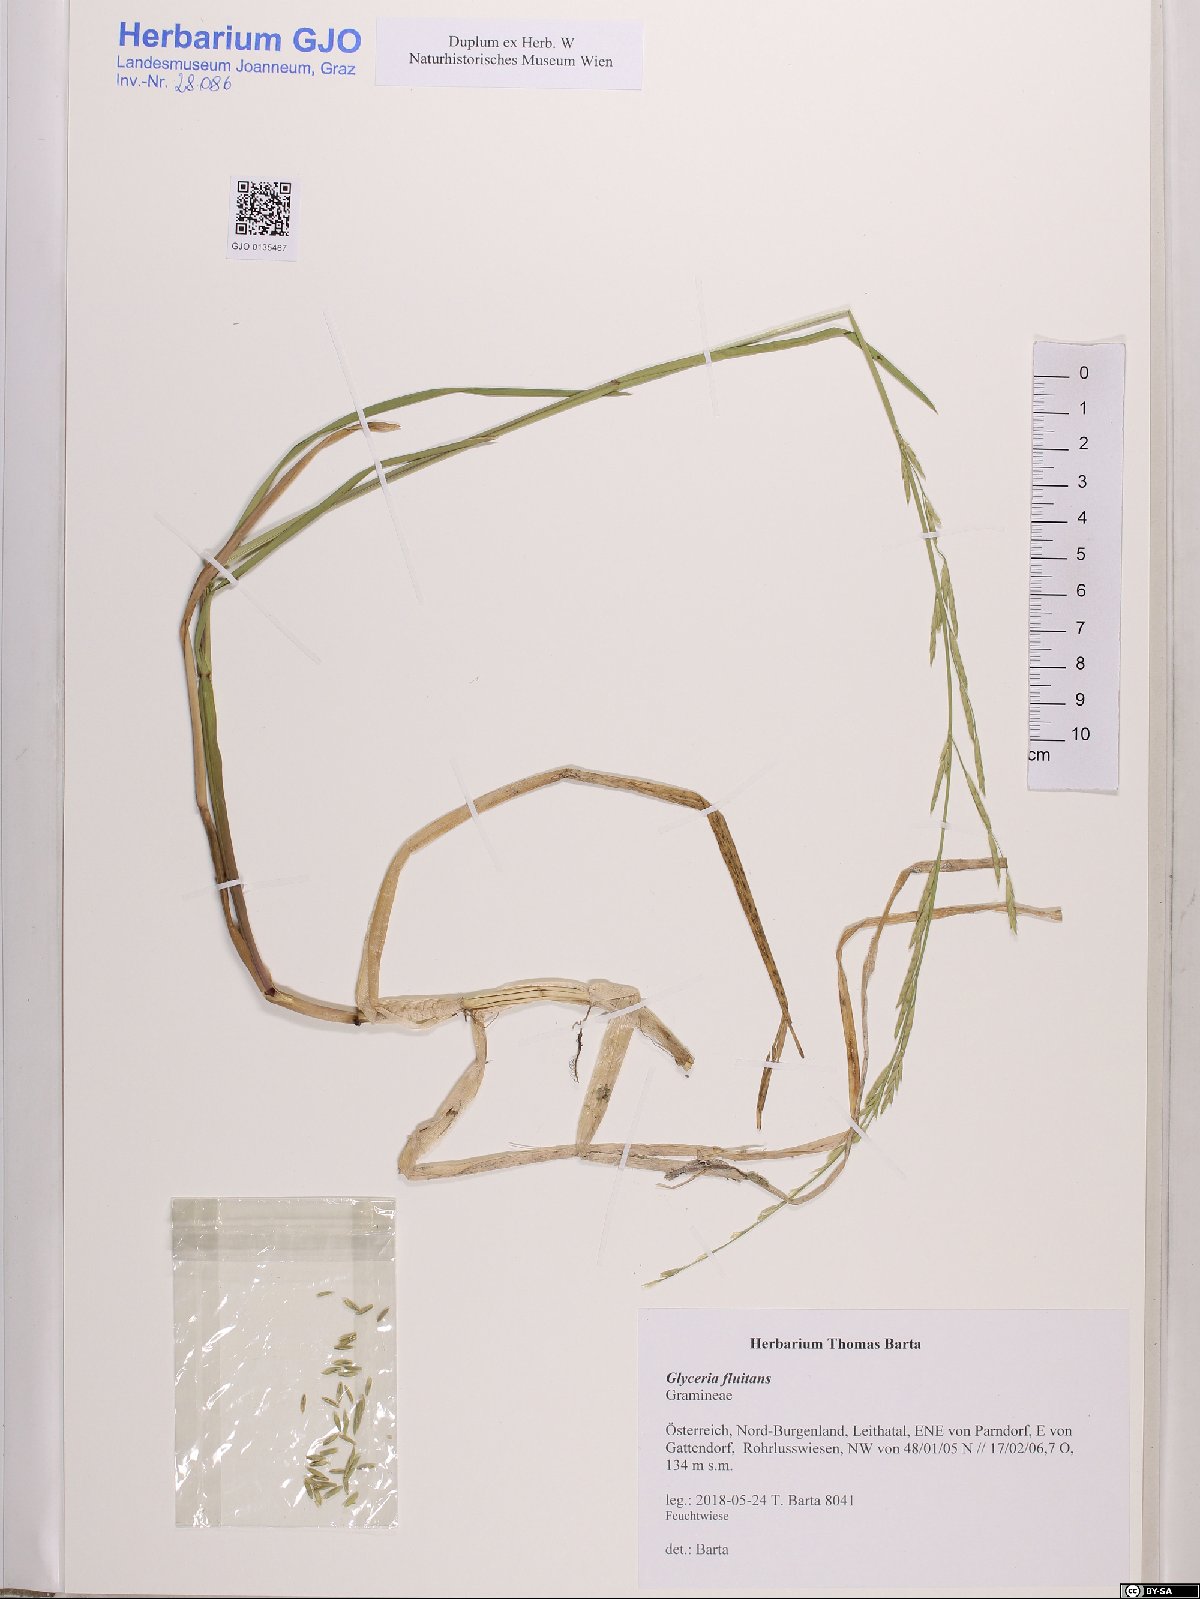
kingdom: Plantae
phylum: Tracheophyta
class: Liliopsida
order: Poales
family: Poaceae
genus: Glyceria
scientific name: Glyceria fluitans
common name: Floating sweet-grass
